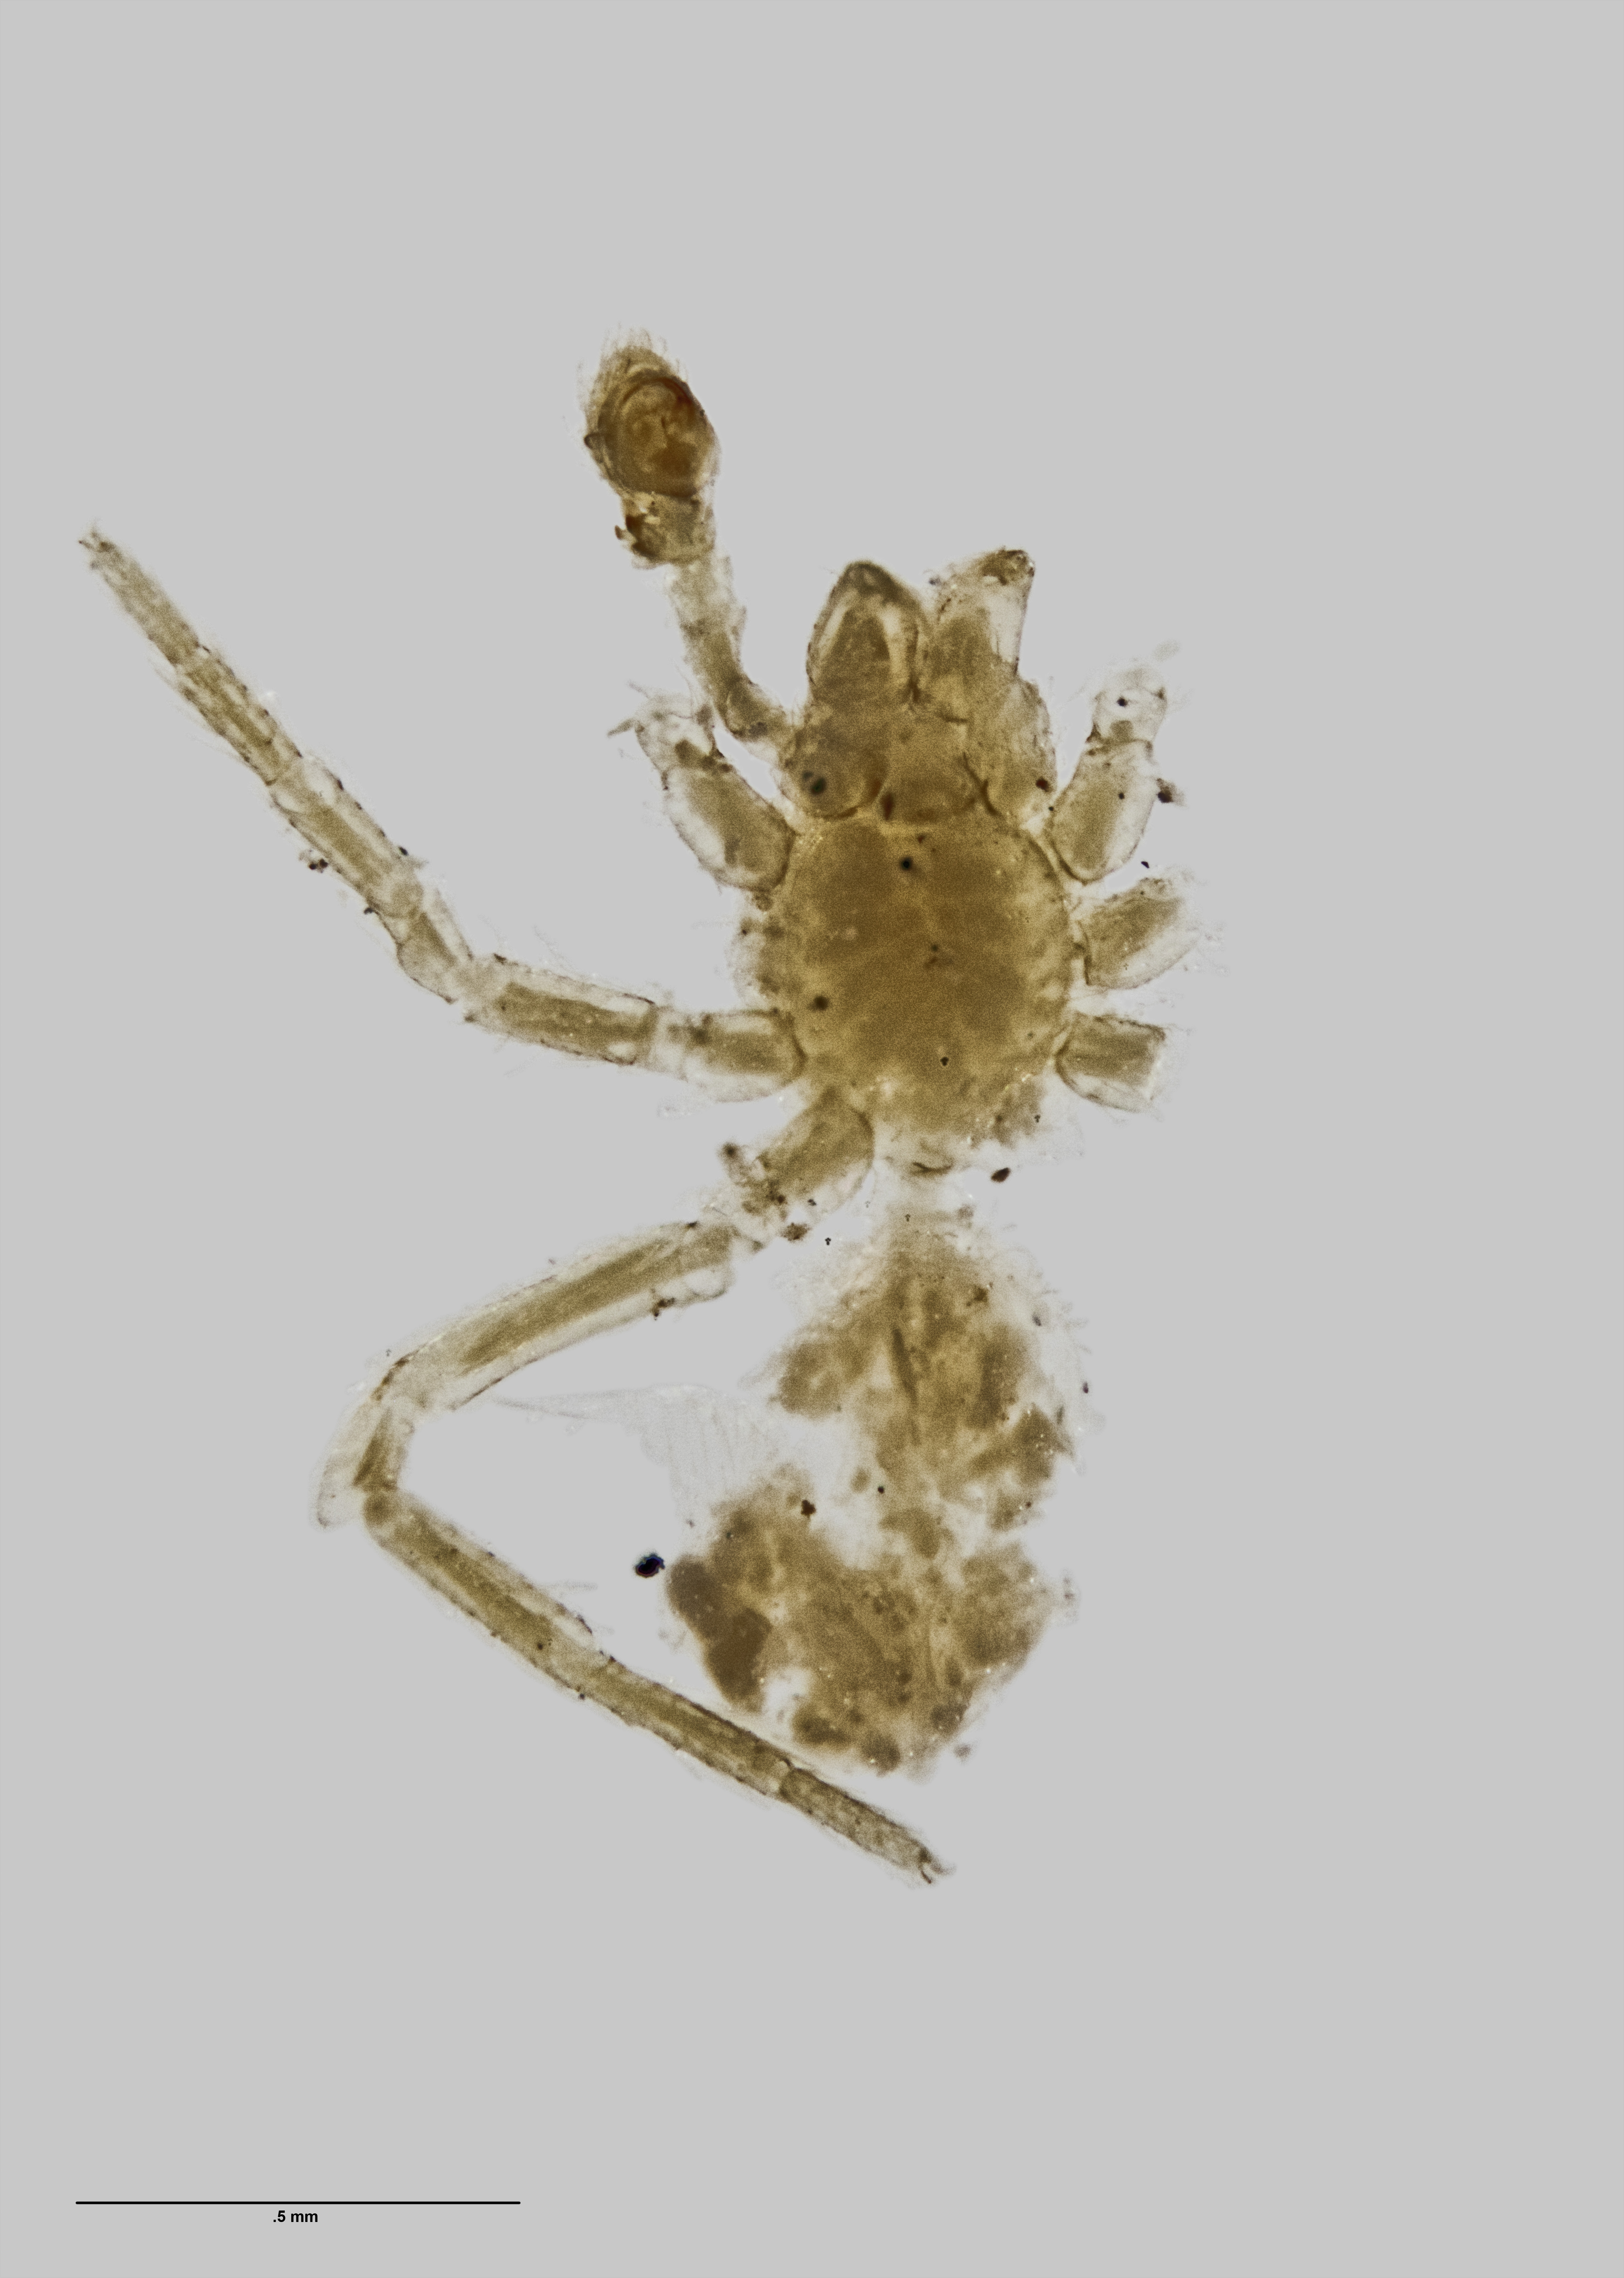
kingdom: Animalia
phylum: Arthropoda
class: Arachnida
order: Araneae
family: Agelenidae
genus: Huka
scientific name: Huka alba
